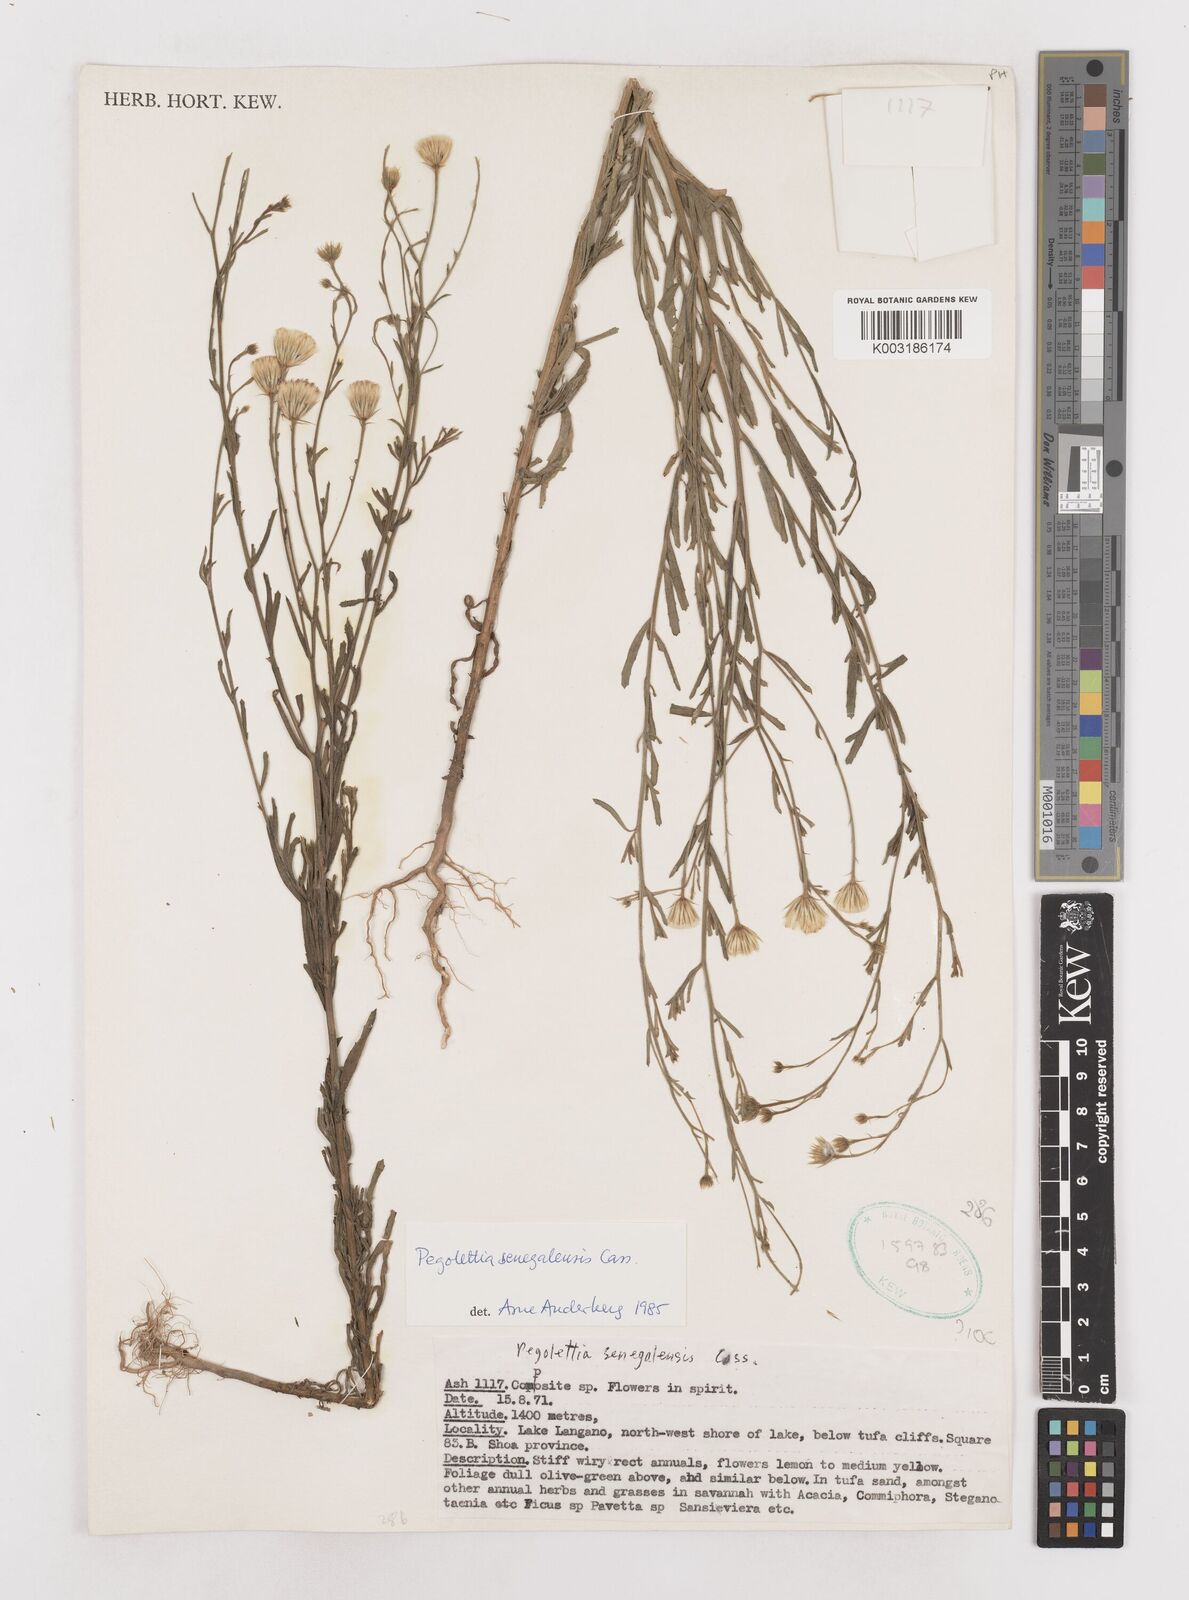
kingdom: Plantae
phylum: Tracheophyta
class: Magnoliopsida
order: Asterales
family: Asteraceae
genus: Pegolettia
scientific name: Pegolettia senegalensis
